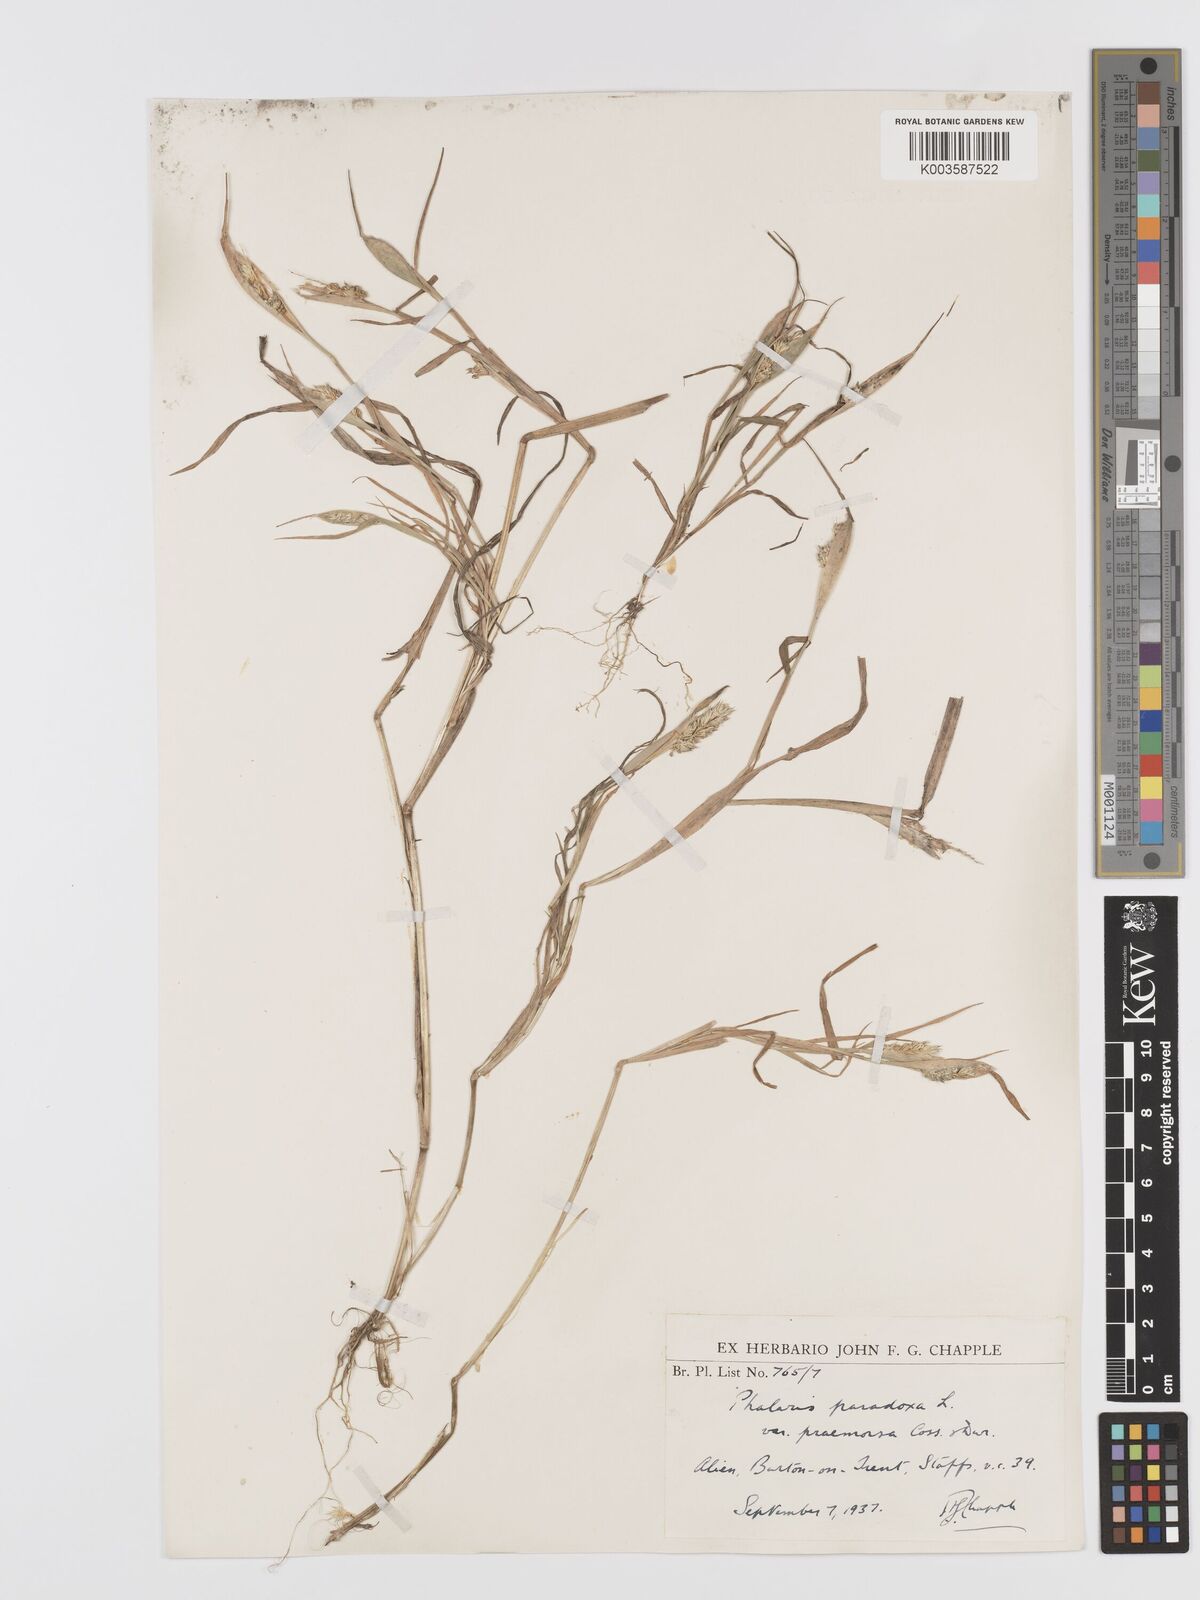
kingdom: Plantae
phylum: Tracheophyta
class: Liliopsida
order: Poales
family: Poaceae
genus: Phalaris
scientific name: Phalaris paradoxa
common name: Awned canary-grass
